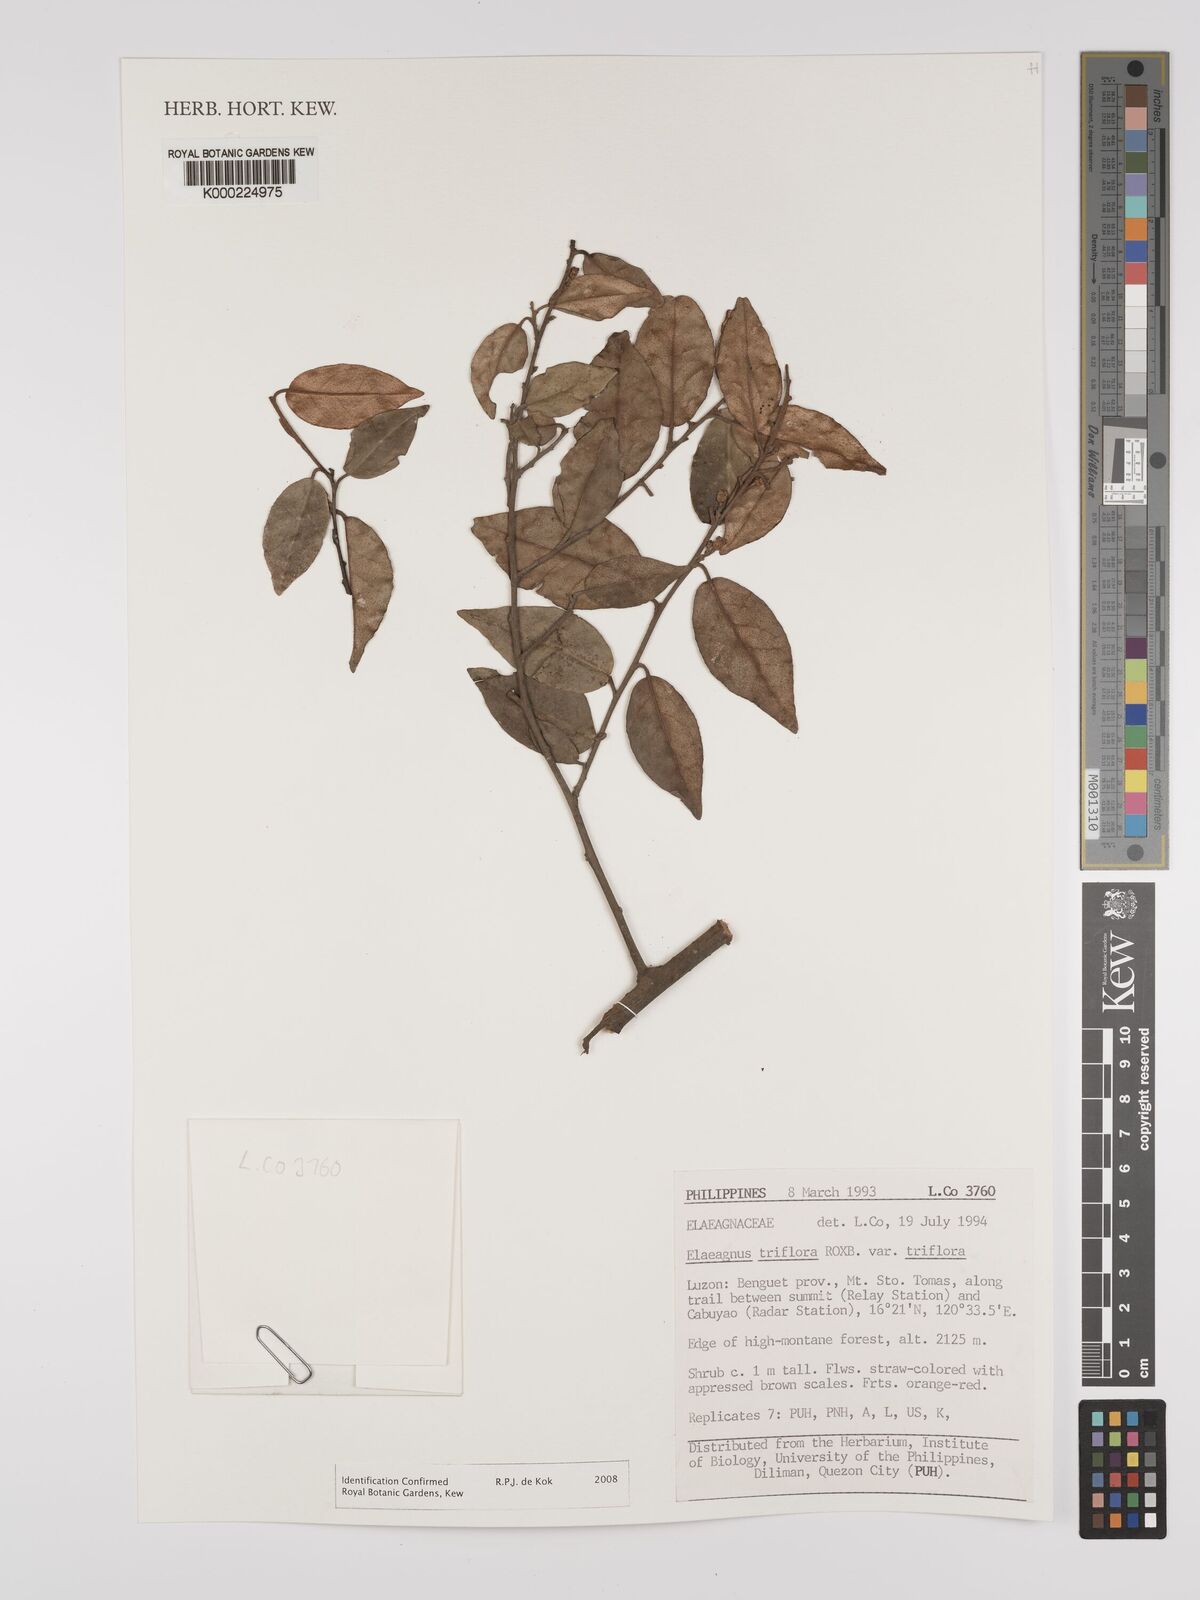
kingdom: Plantae
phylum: Tracheophyta
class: Magnoliopsida
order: Rosales
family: Elaeagnaceae
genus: Elaeagnus
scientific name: Elaeagnus
